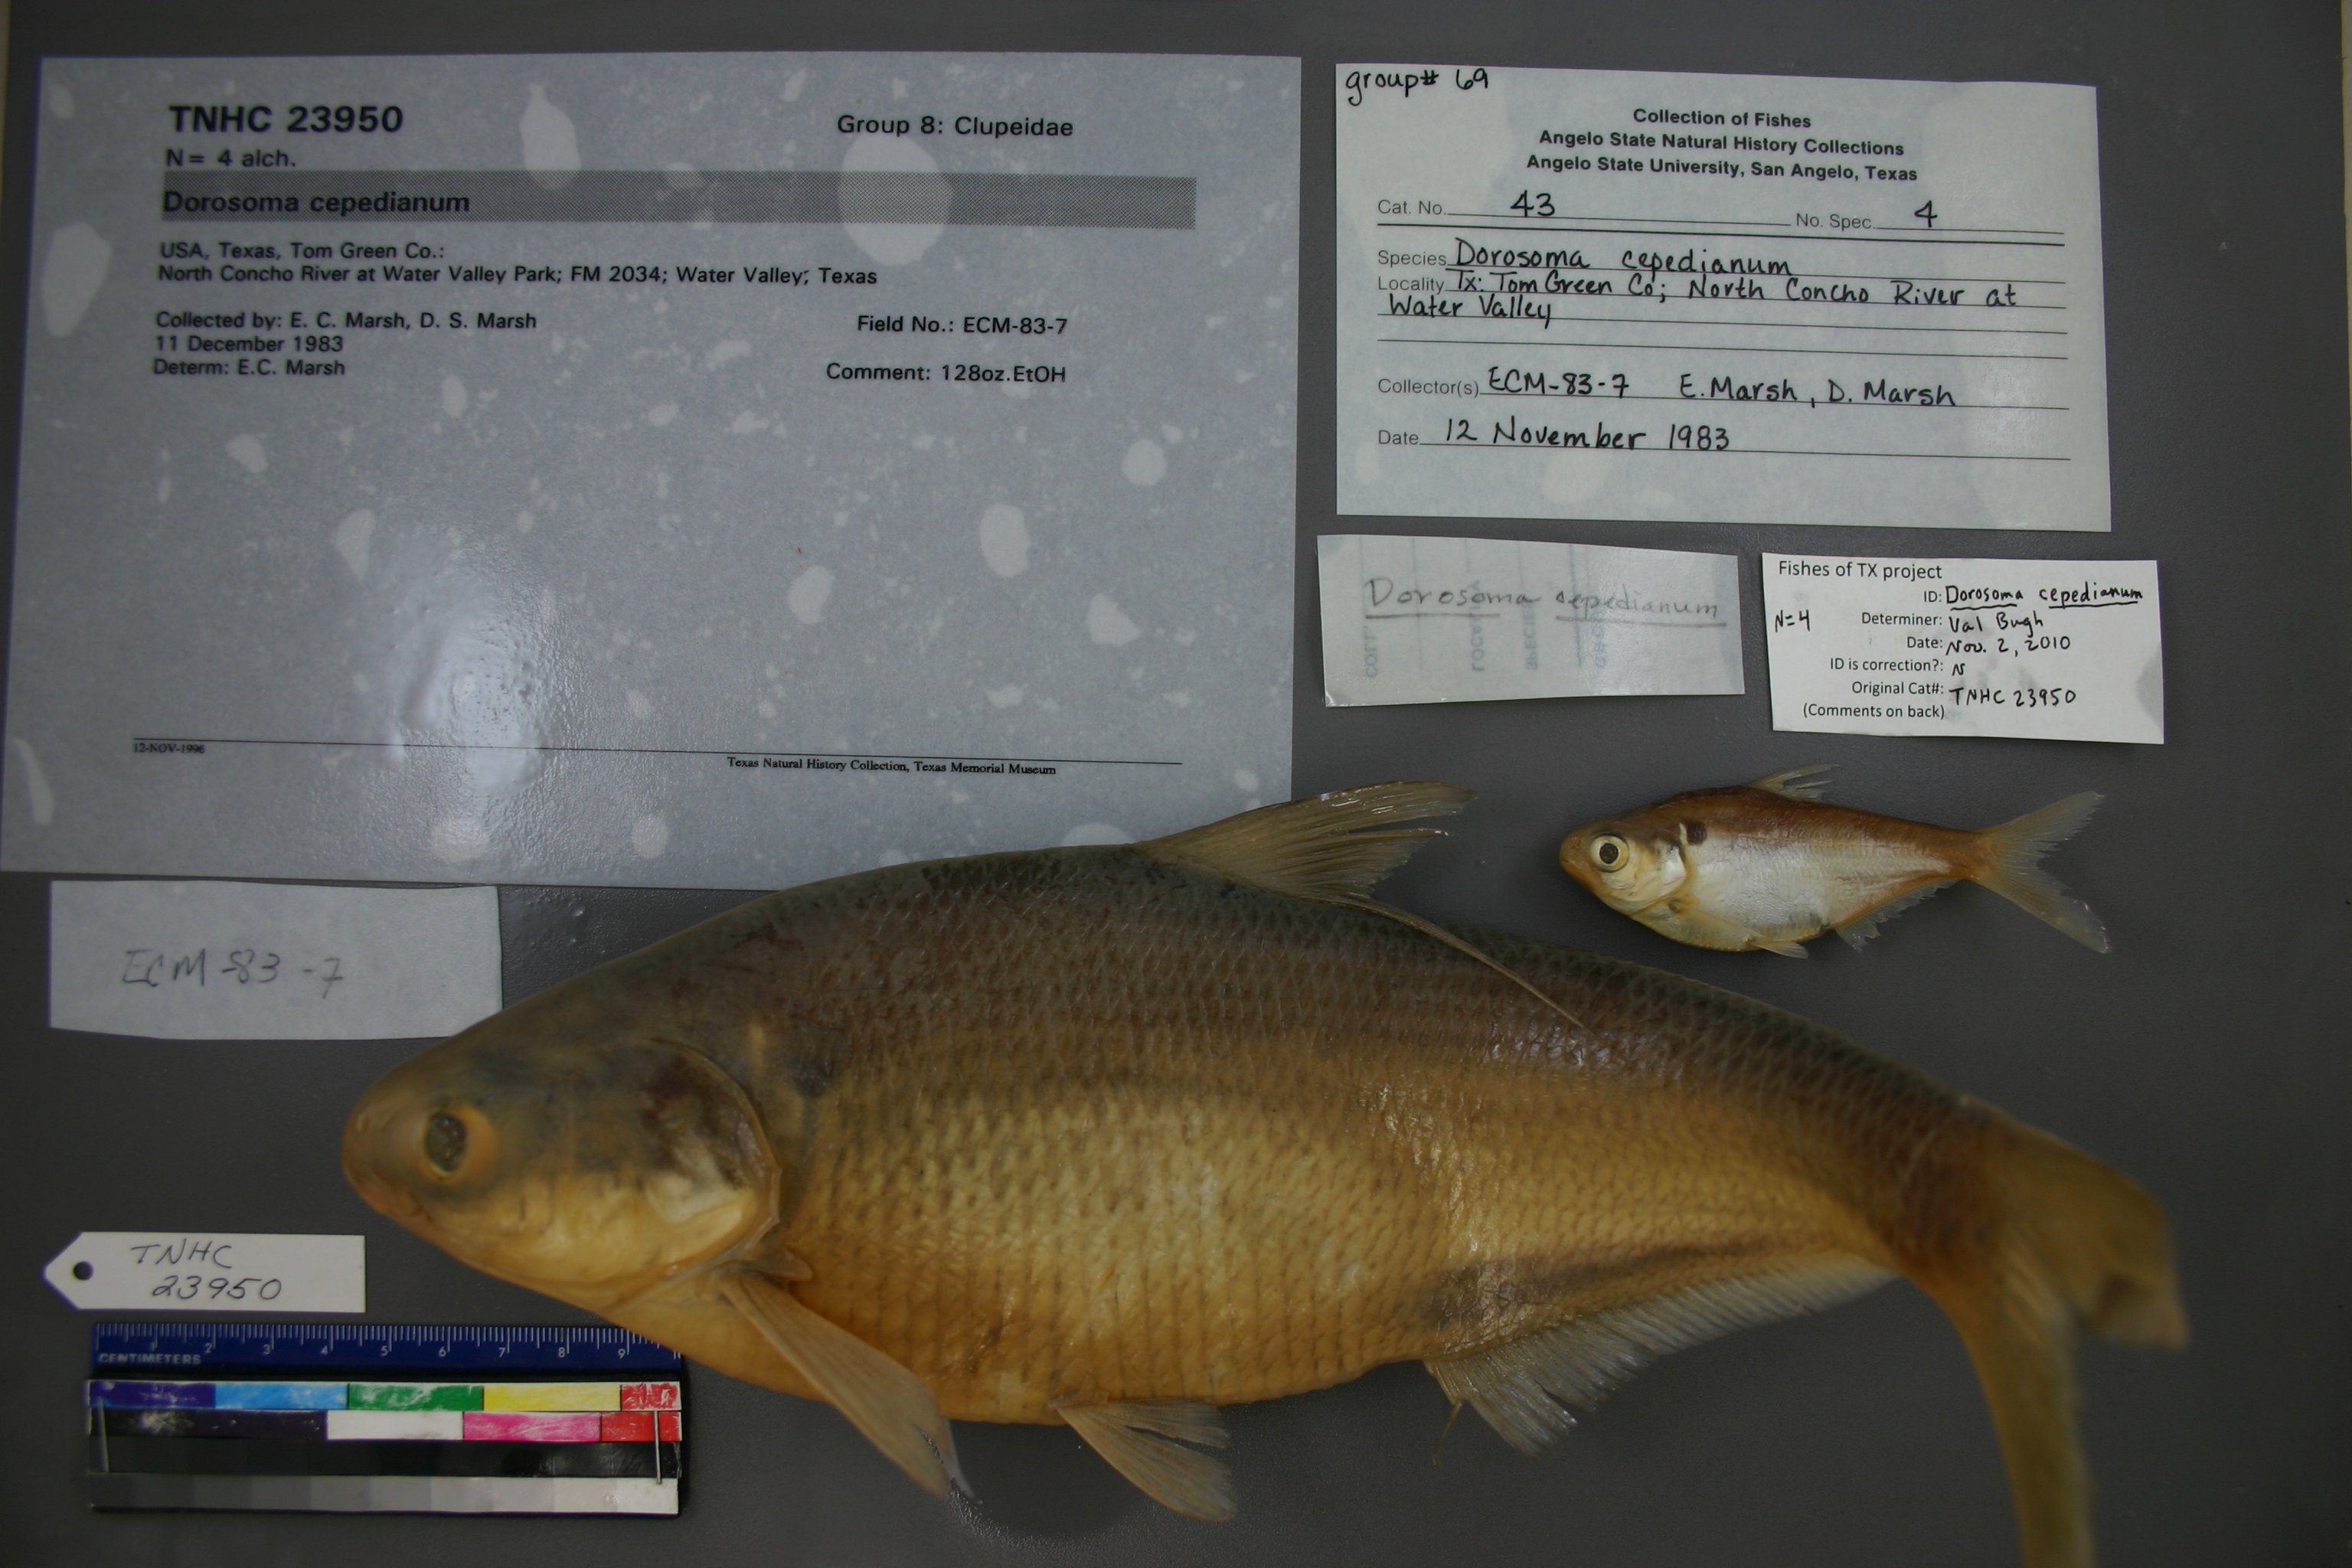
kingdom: Animalia
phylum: Chordata
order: Clupeiformes
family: Clupeidae
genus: Dorosoma
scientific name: Dorosoma cepedianum
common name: Gizzard shad
